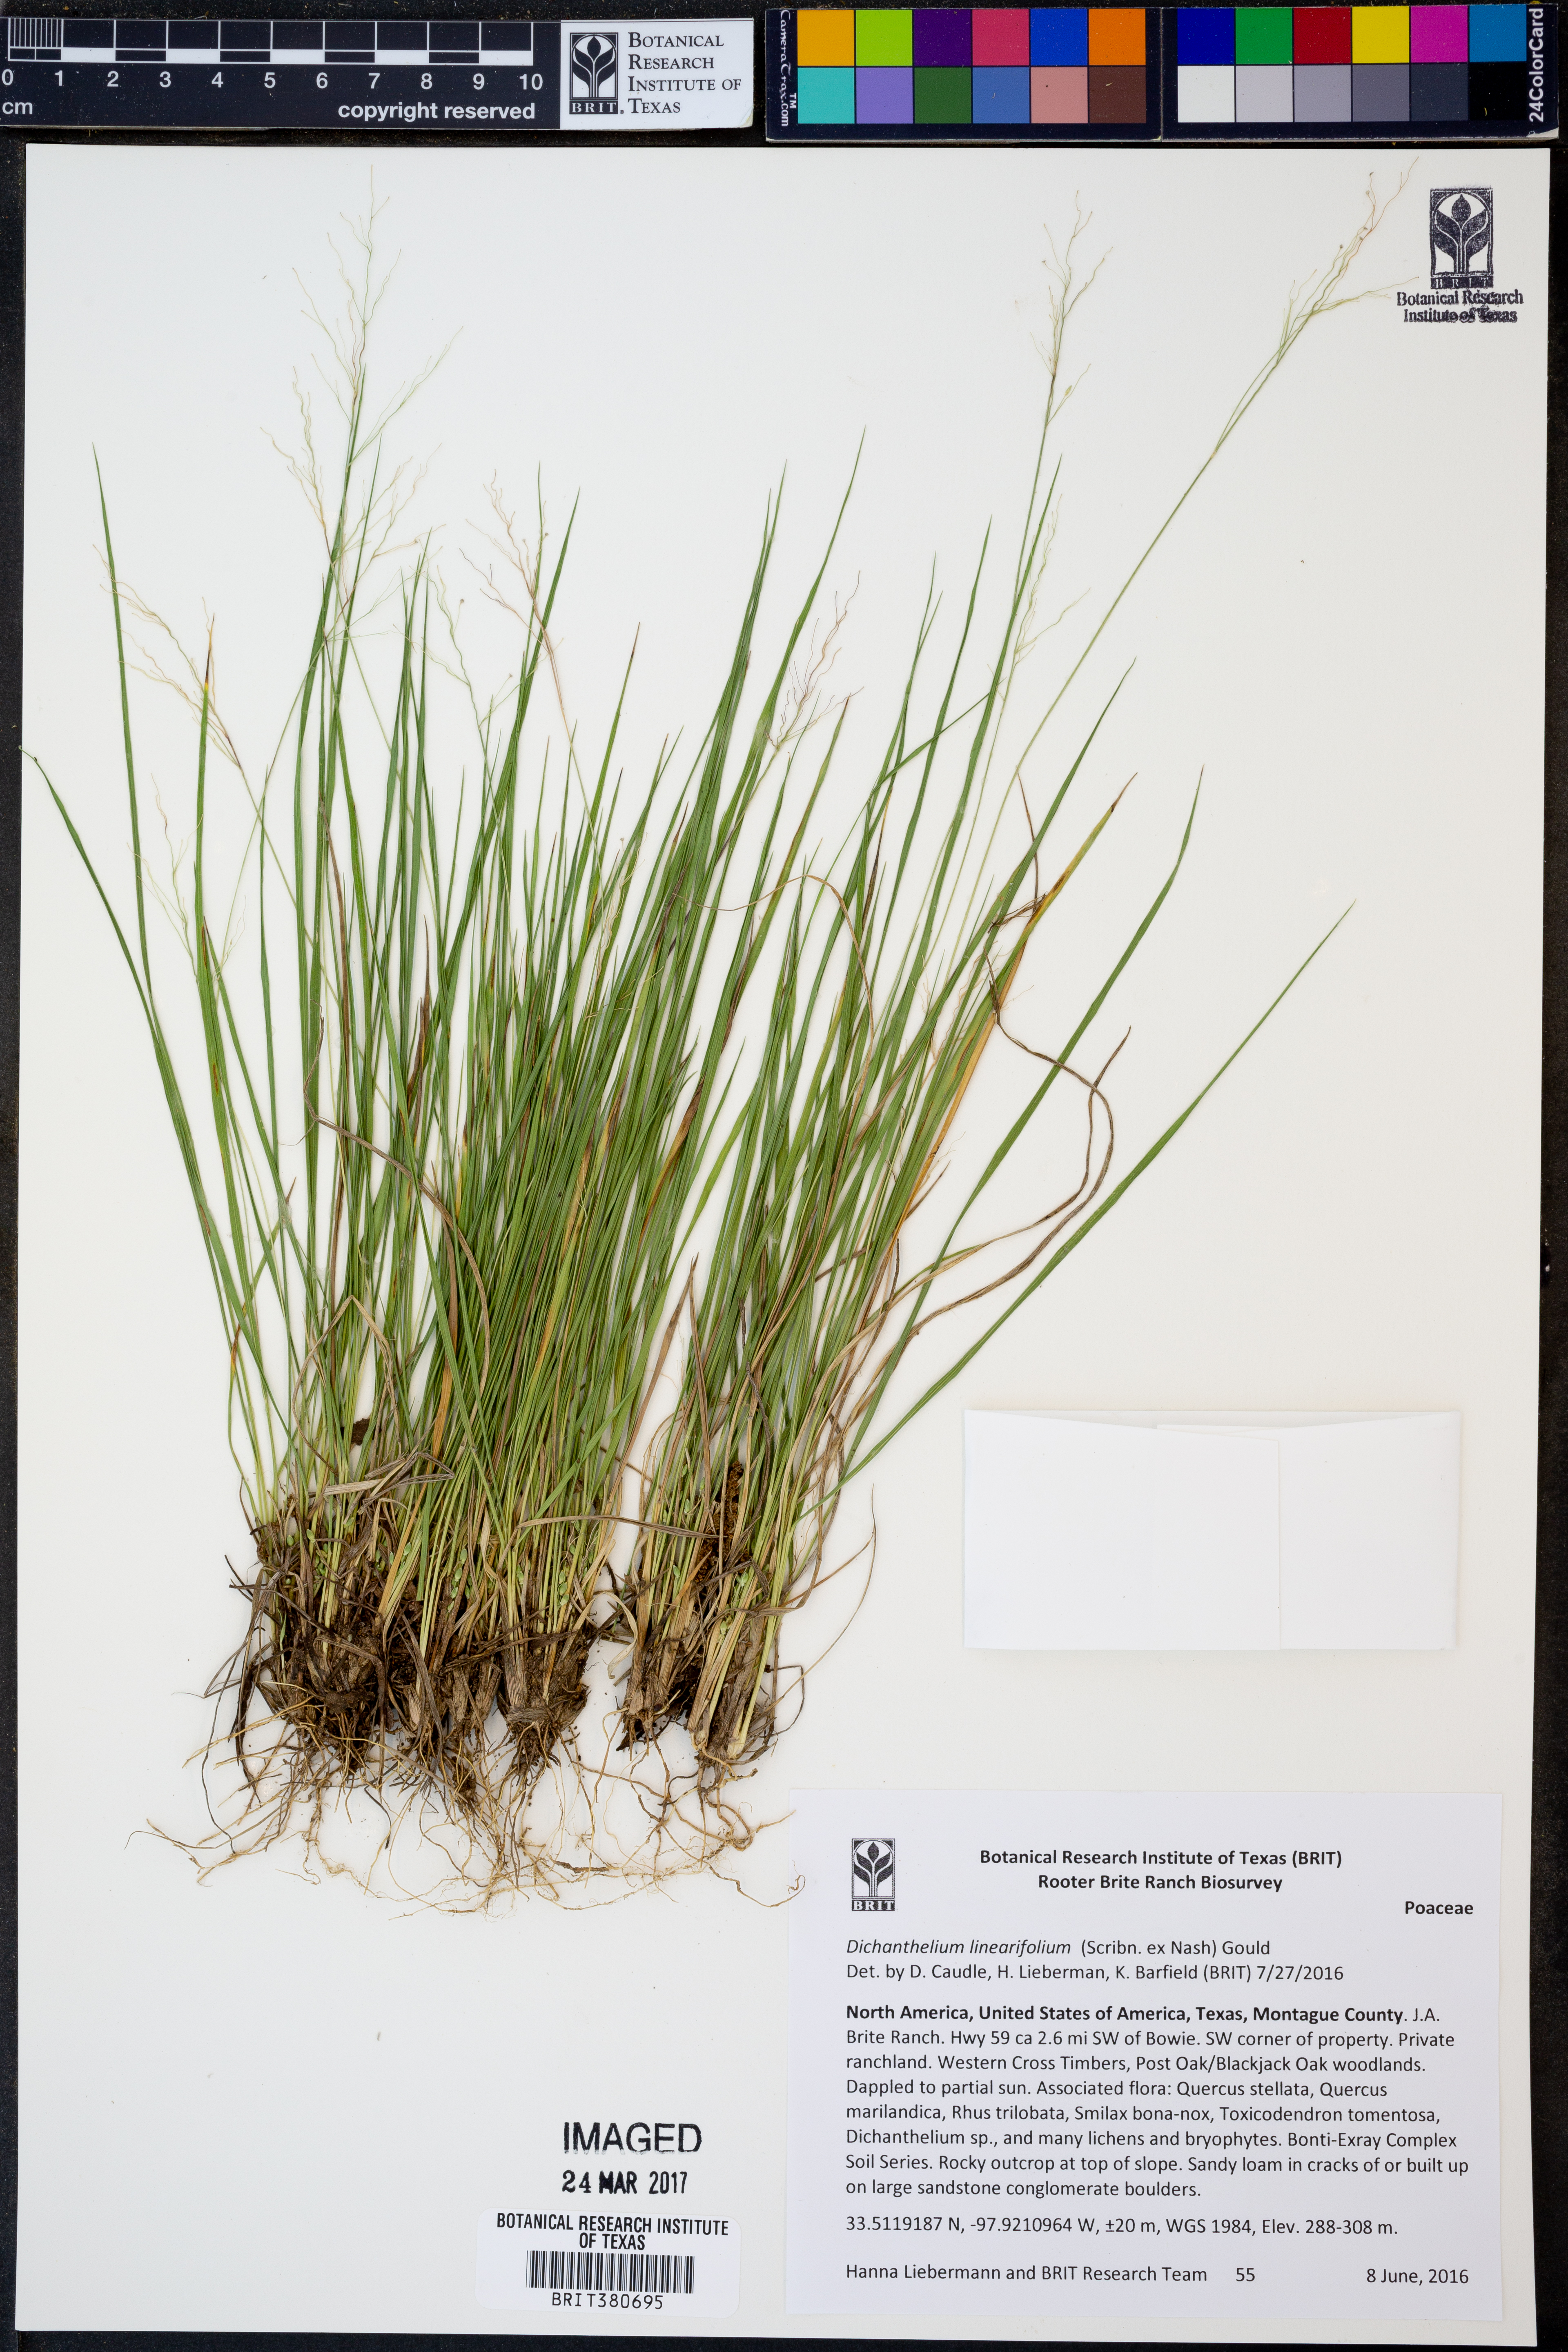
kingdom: Plantae
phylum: Tracheophyta
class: Liliopsida
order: Poales
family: Poaceae
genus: Dichanthelium
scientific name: Dichanthelium linearifolium
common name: Linear-leaved panicgrass
